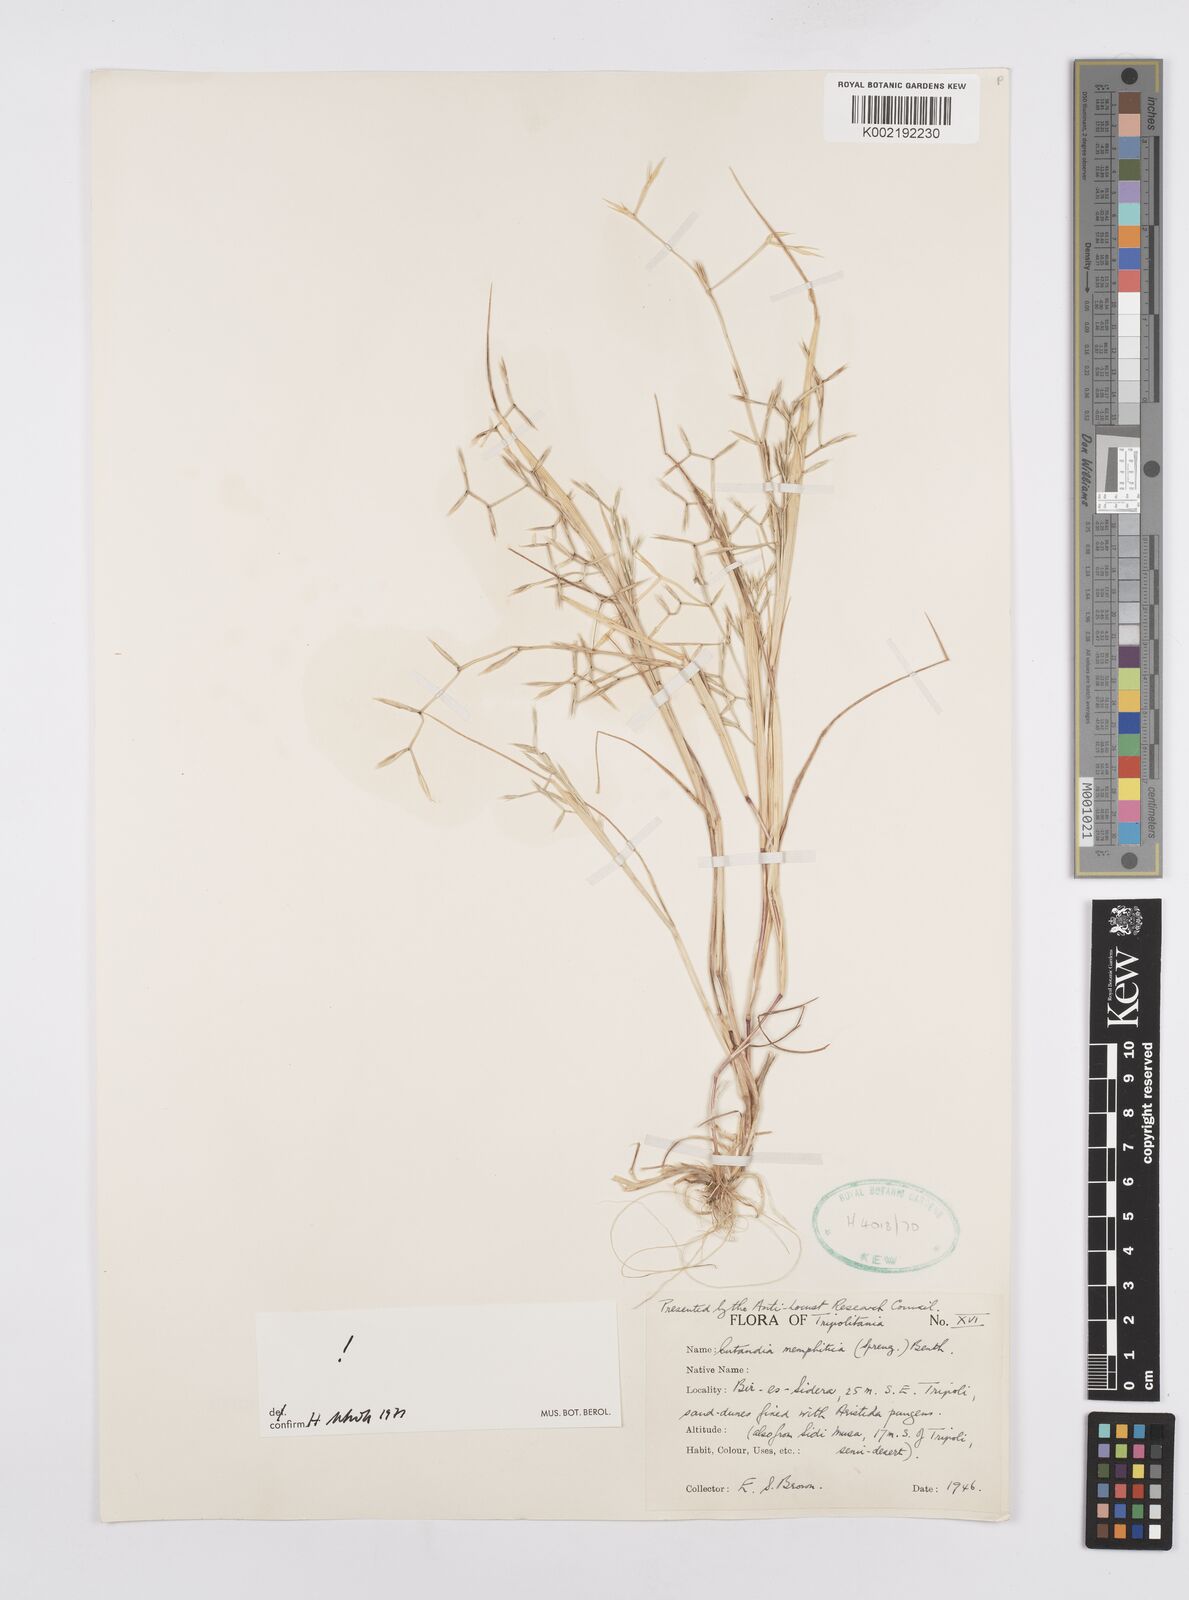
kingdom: Plantae
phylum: Tracheophyta
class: Liliopsida
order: Poales
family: Poaceae
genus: Cutandia
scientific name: Cutandia memphitica
